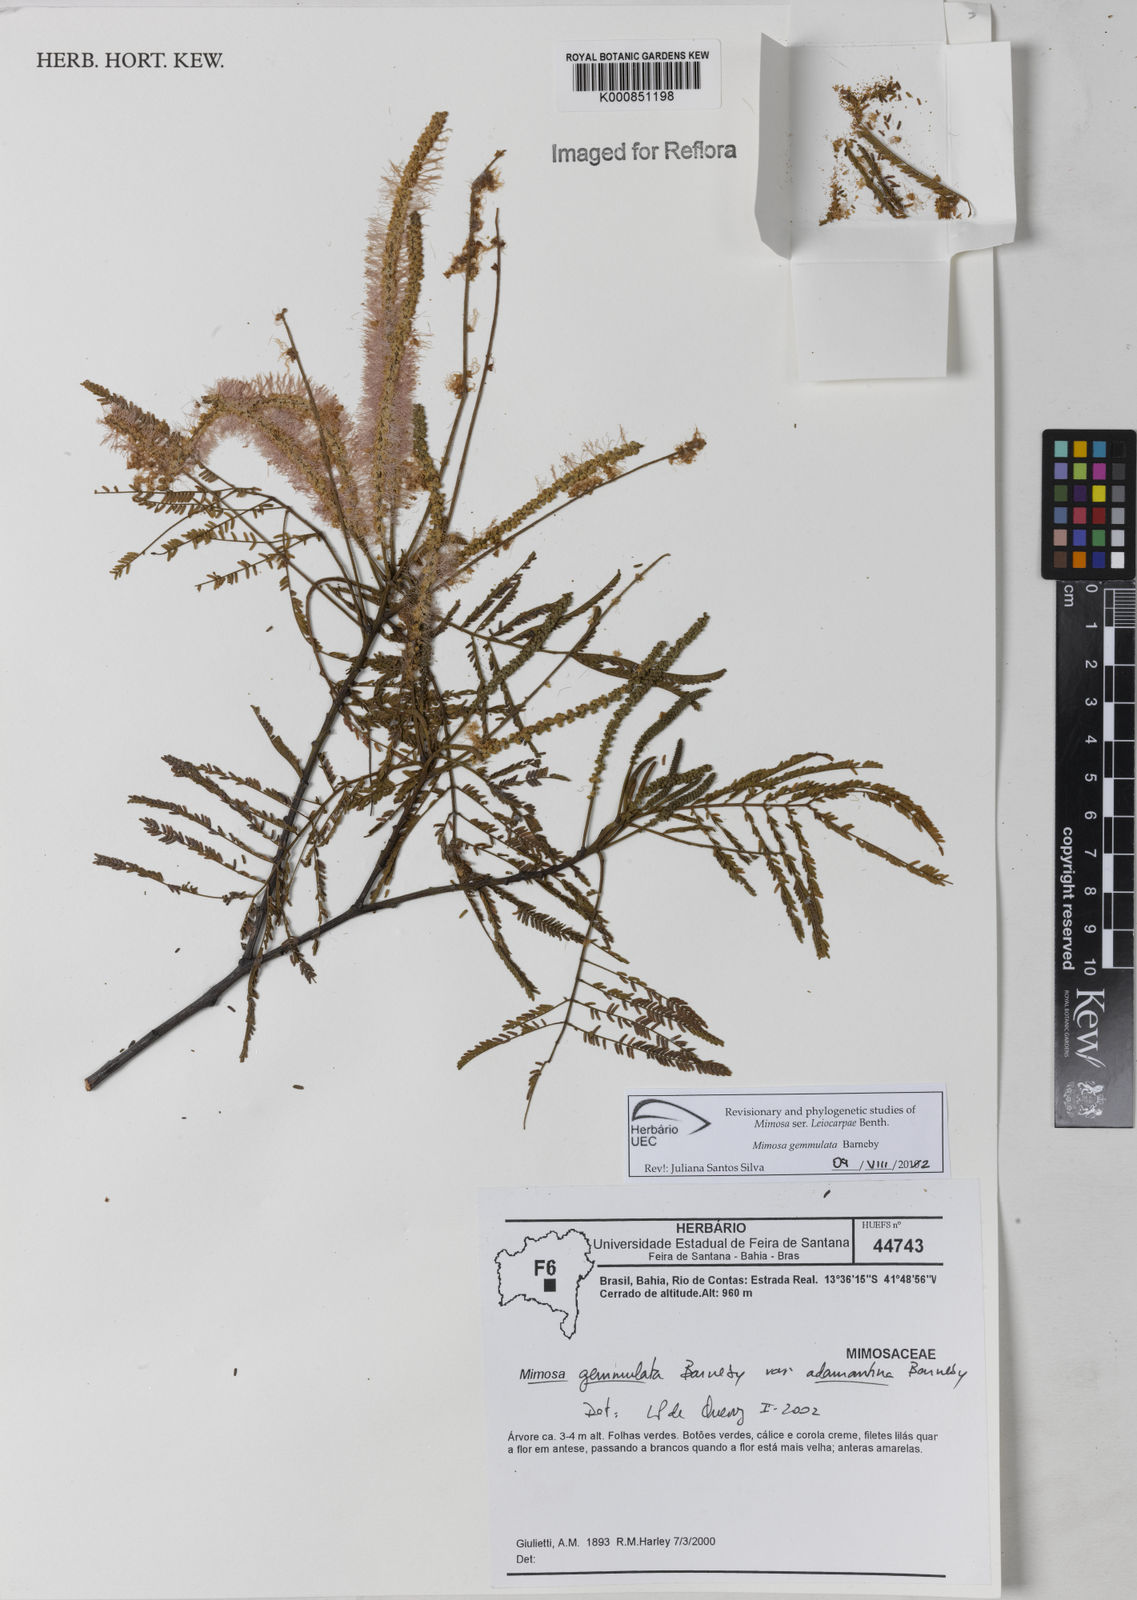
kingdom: Plantae
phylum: Tracheophyta
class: Magnoliopsida
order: Fabales
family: Fabaceae
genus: Mimosa
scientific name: Mimosa gemmulata
